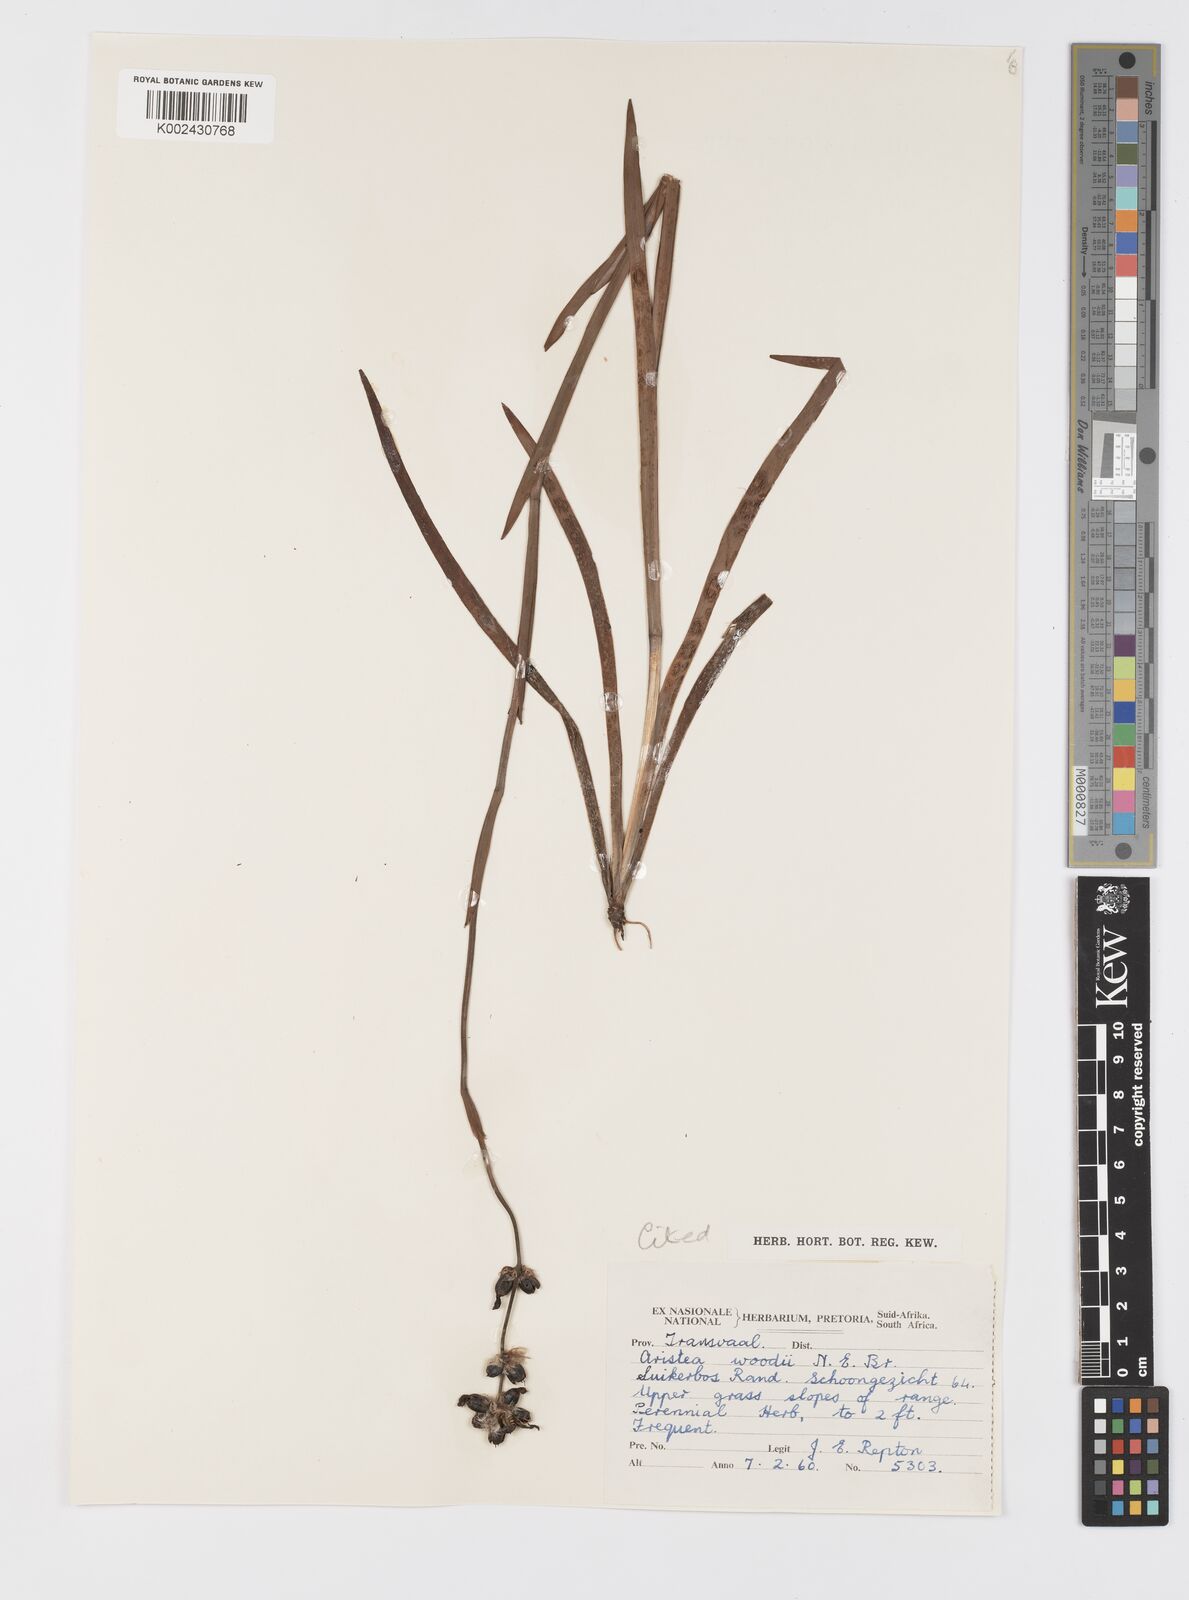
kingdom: Plantae
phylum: Tracheophyta
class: Liliopsida
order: Asparagales
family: Iridaceae
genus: Aristea
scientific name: Aristea torulosa
